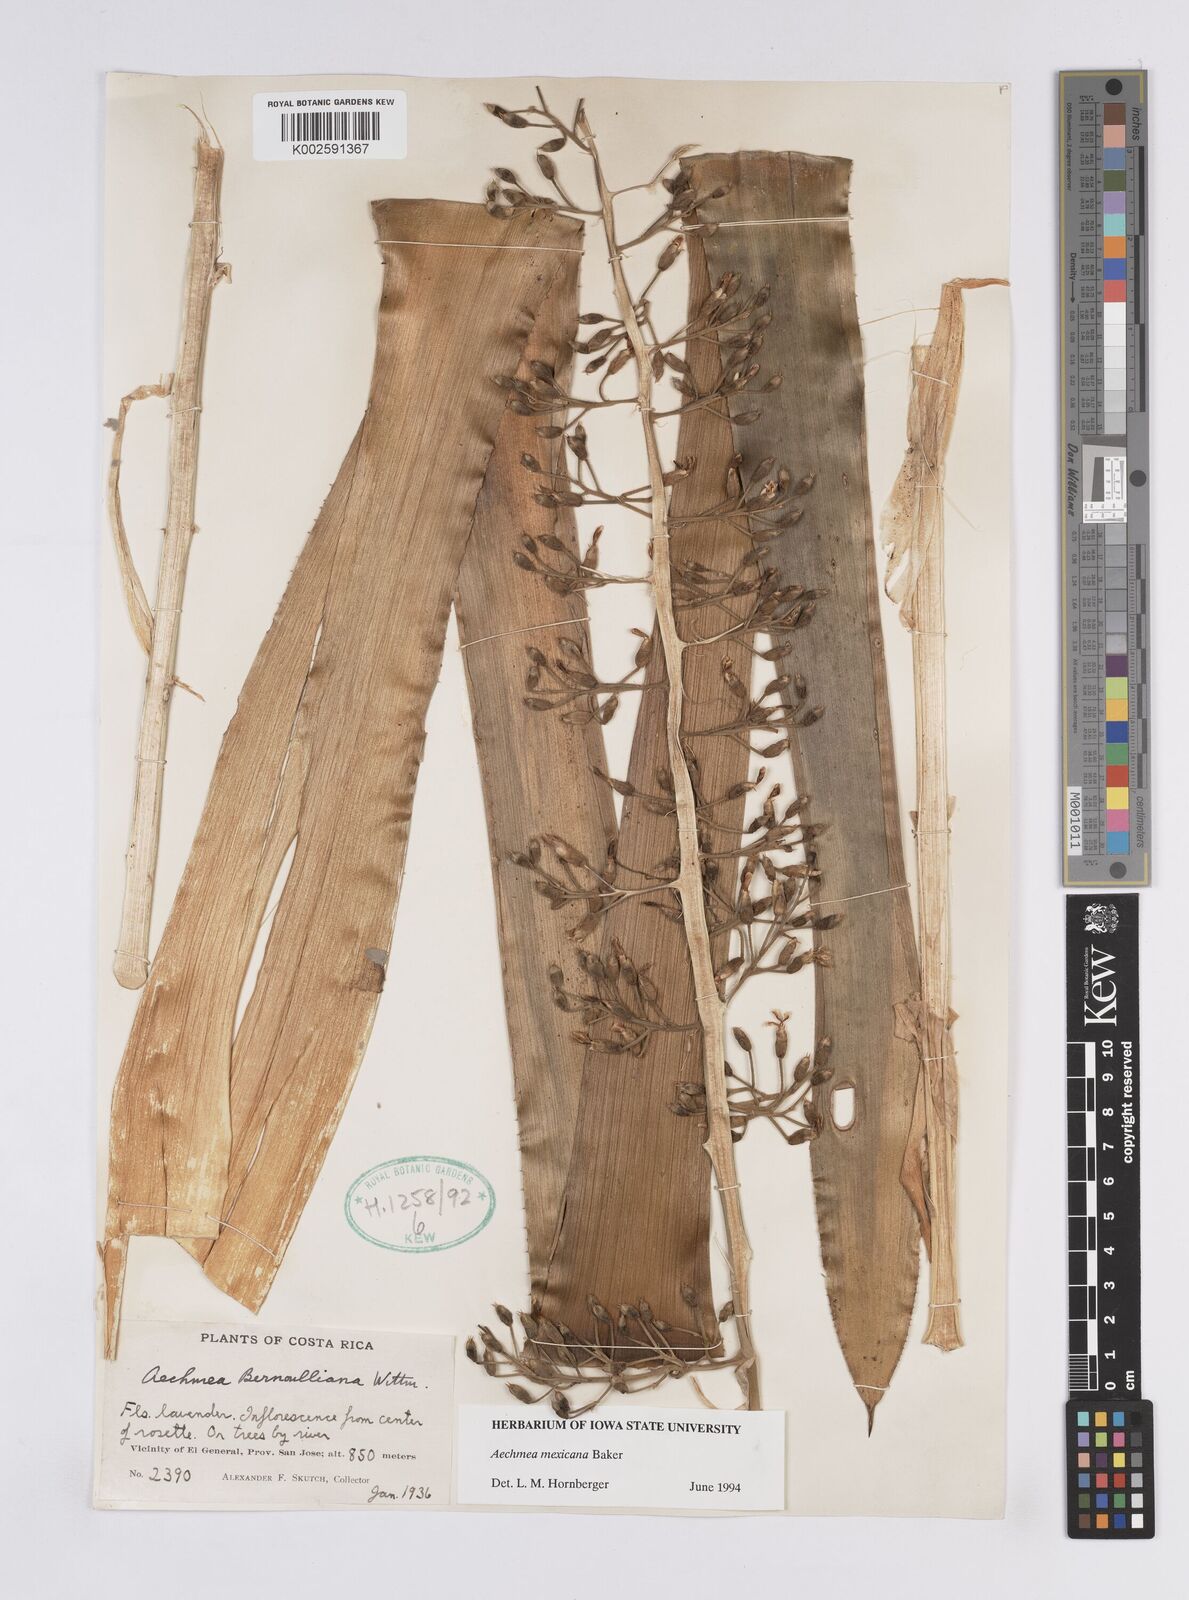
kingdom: Plantae
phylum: Tracheophyta
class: Liliopsida
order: Poales
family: Bromeliaceae
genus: Aechmea
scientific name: Aechmea mexicana
